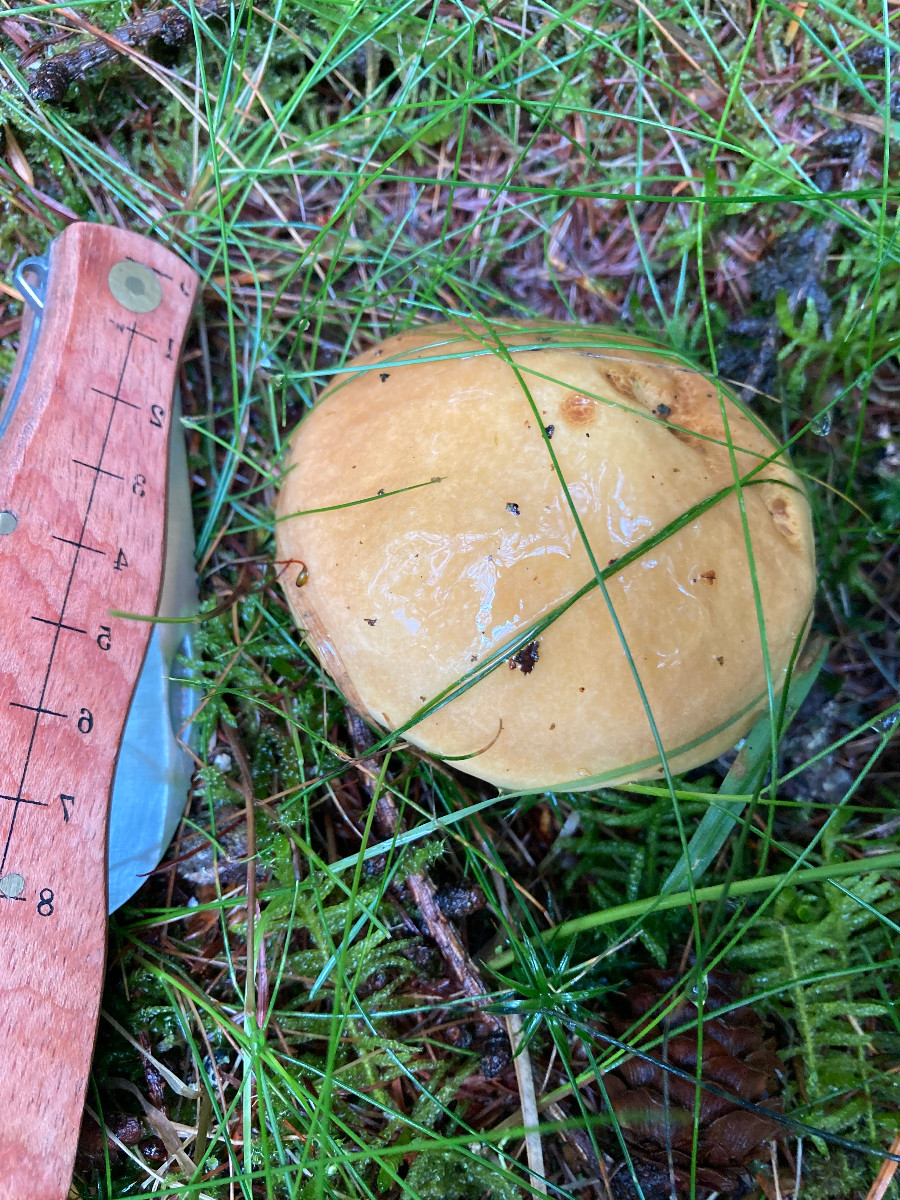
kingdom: Fungi
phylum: Basidiomycota
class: Agaricomycetes
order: Boletales
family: Suillaceae
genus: Suillus
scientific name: Suillus grevillei
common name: lærke-slimrørhat
